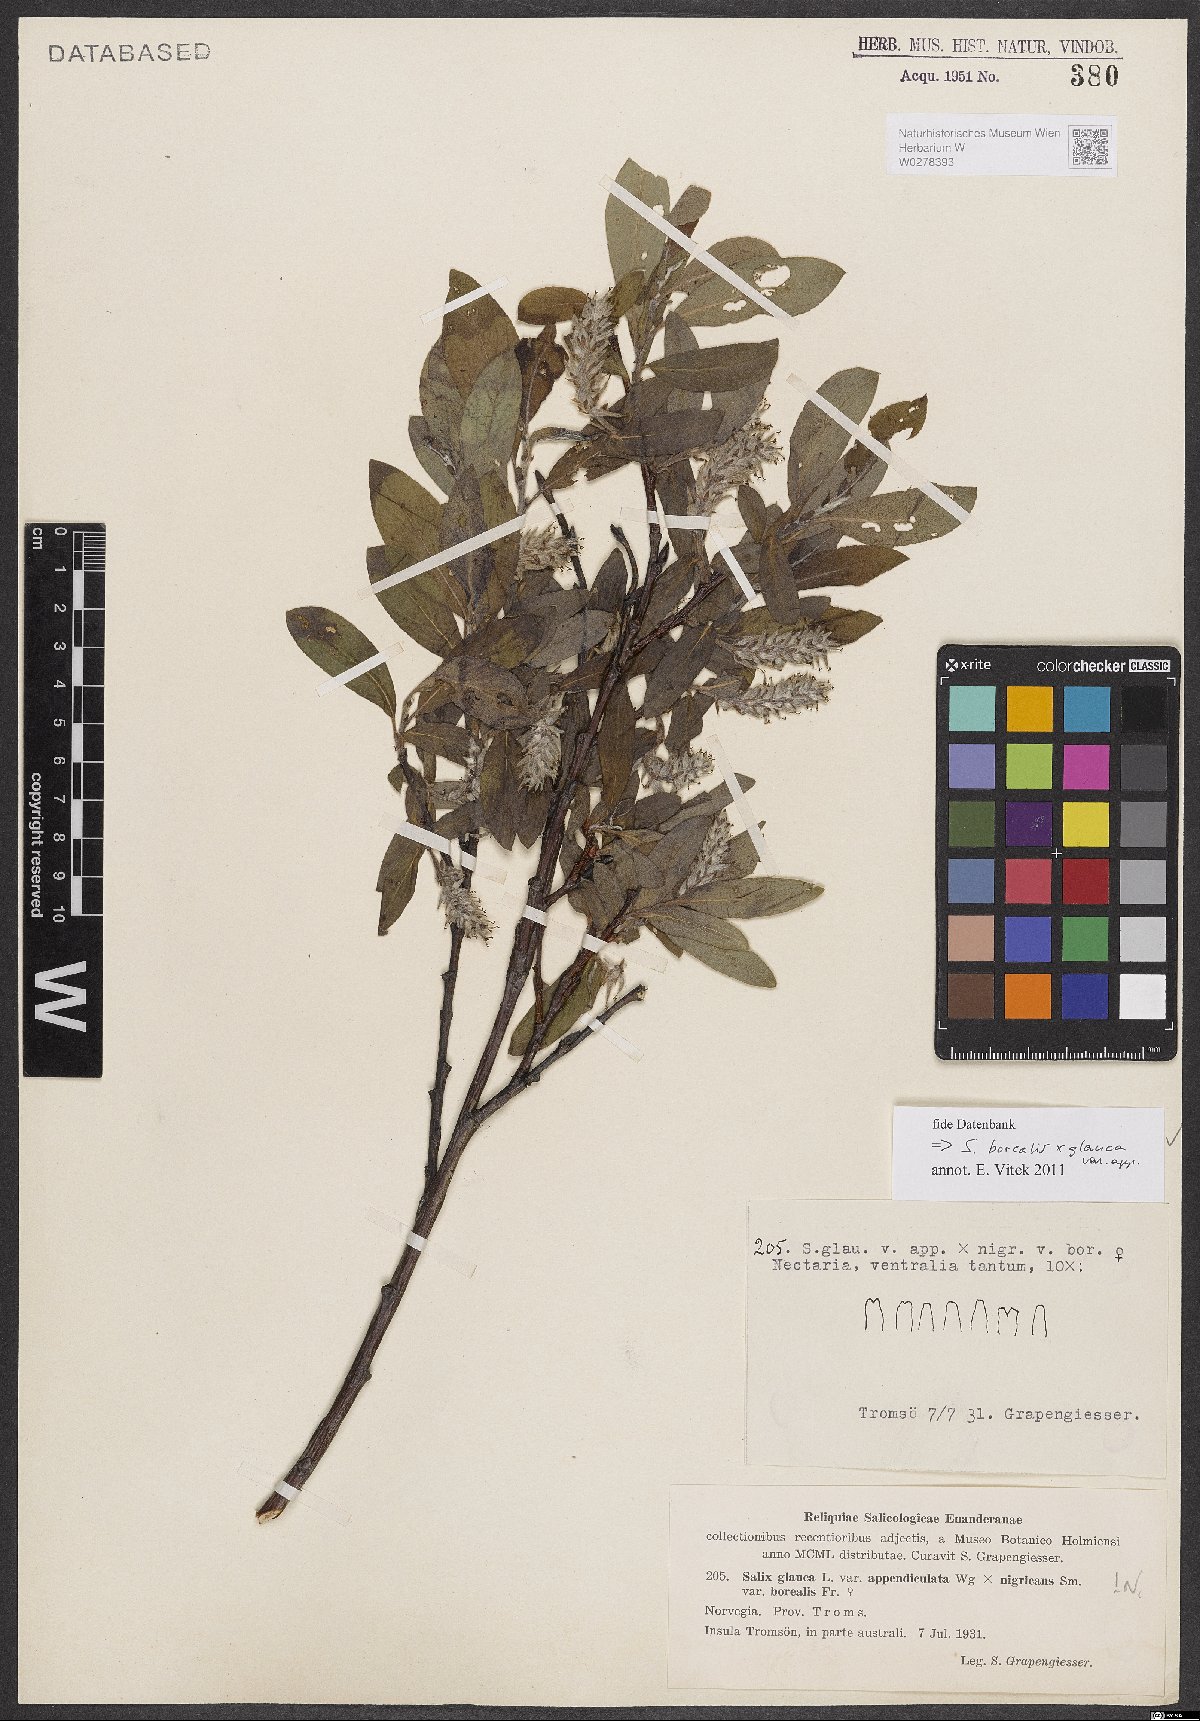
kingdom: Plantae
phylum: Tracheophyta
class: Magnoliopsida
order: Malpighiales
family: Salicaceae
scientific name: Salicaceae
